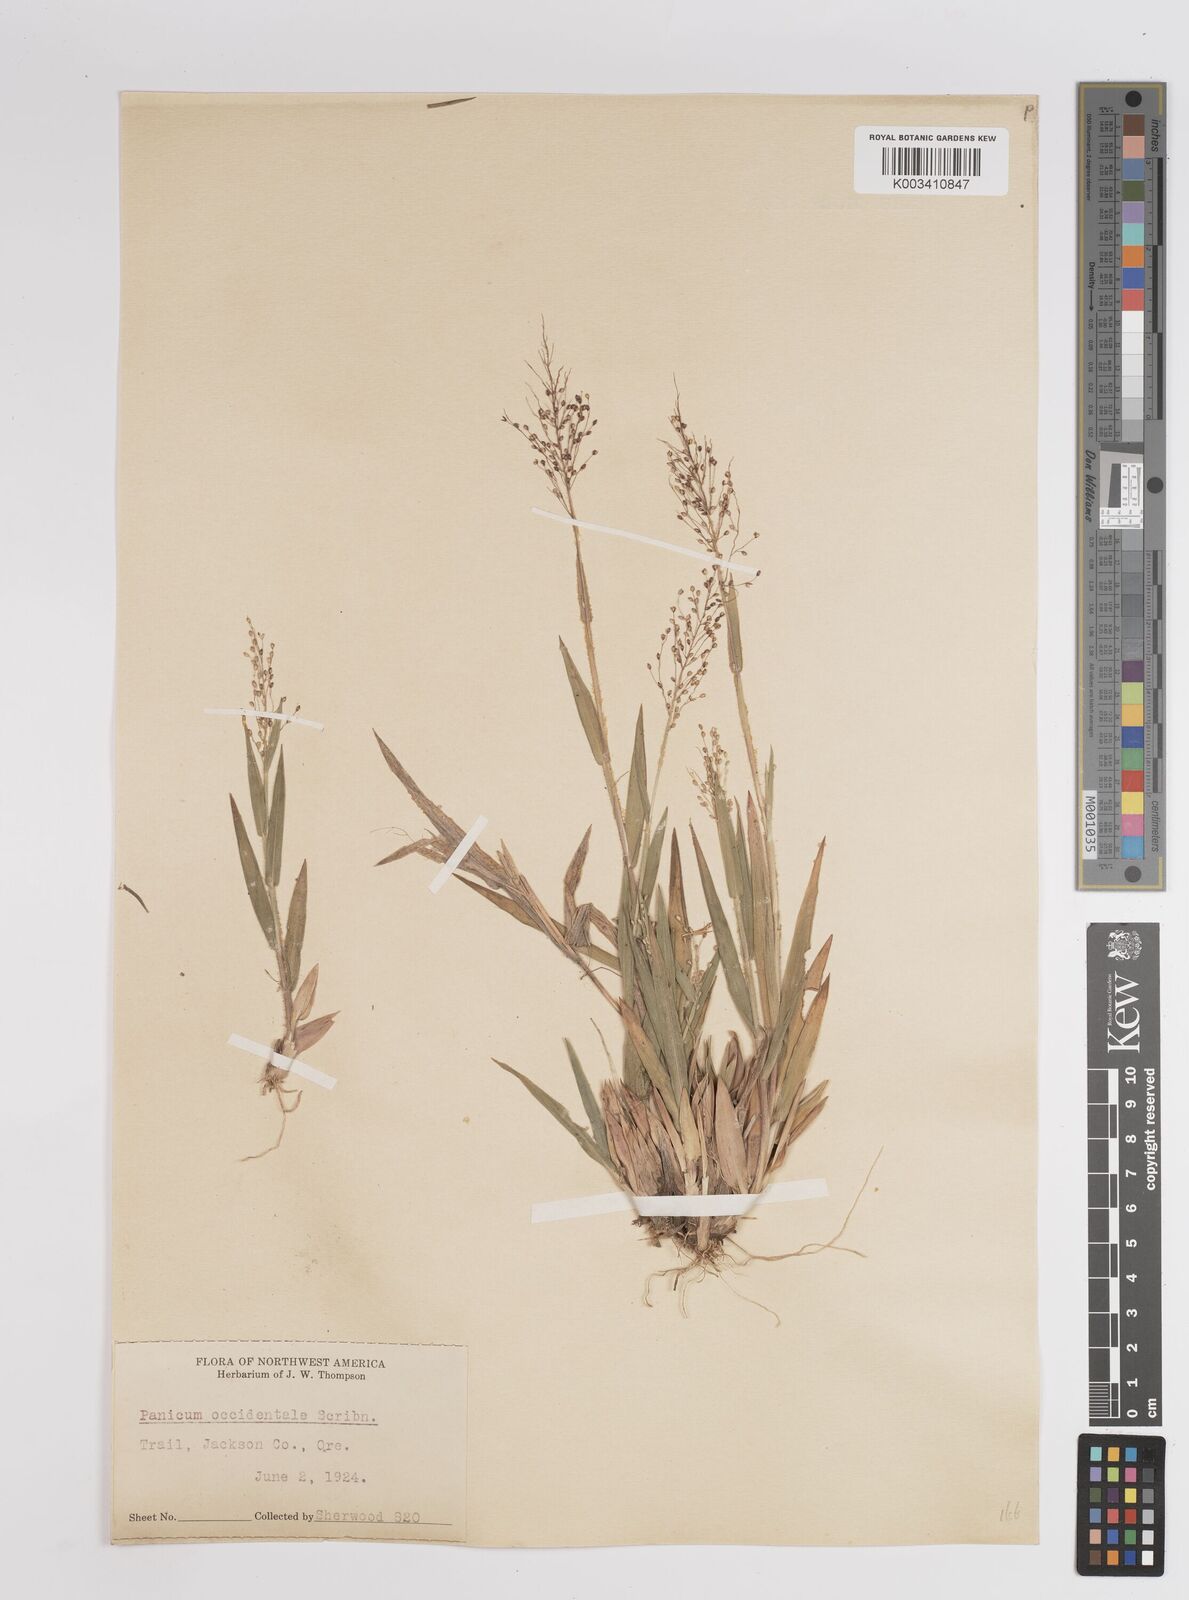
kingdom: Plantae
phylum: Tracheophyta
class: Liliopsida
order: Poales
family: Poaceae
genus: Dichanthelium
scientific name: Dichanthelium implicatum
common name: Slender-stemmed panicgrass
